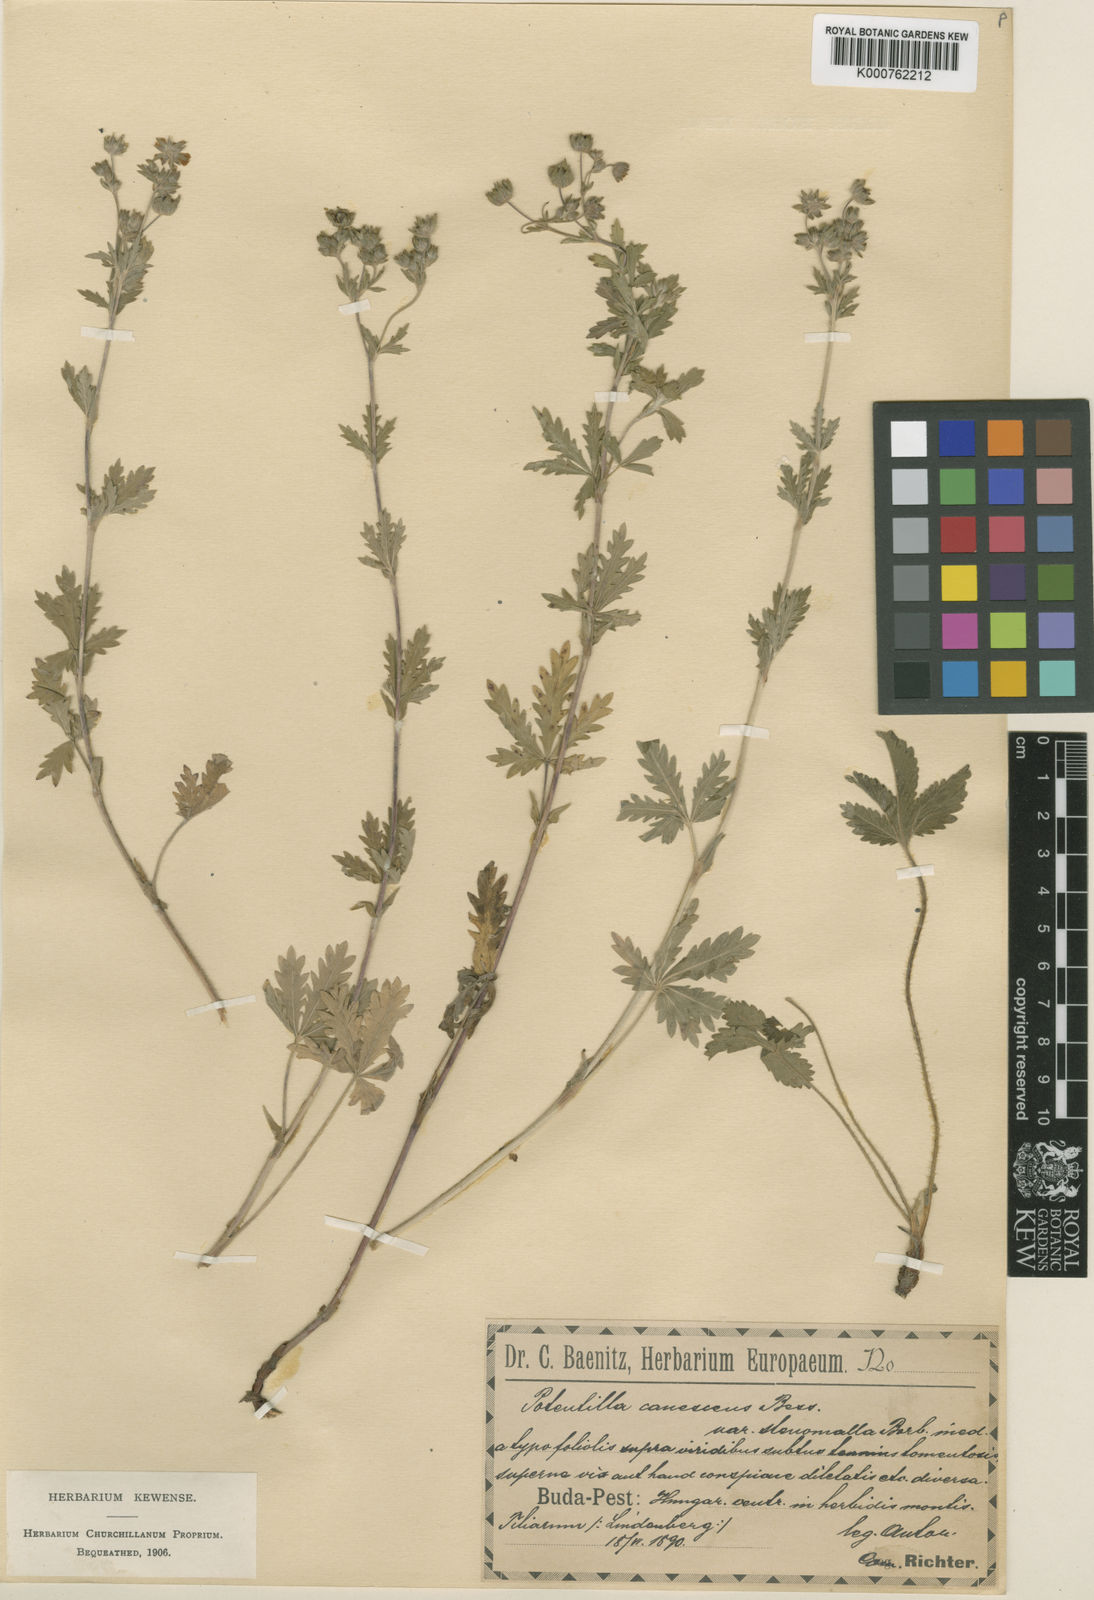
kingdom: Plantae
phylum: Tracheophyta
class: Magnoliopsida
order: Rosales
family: Rosaceae
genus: Potentilla
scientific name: Potentilla inclinata
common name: Grey cinquefoil
